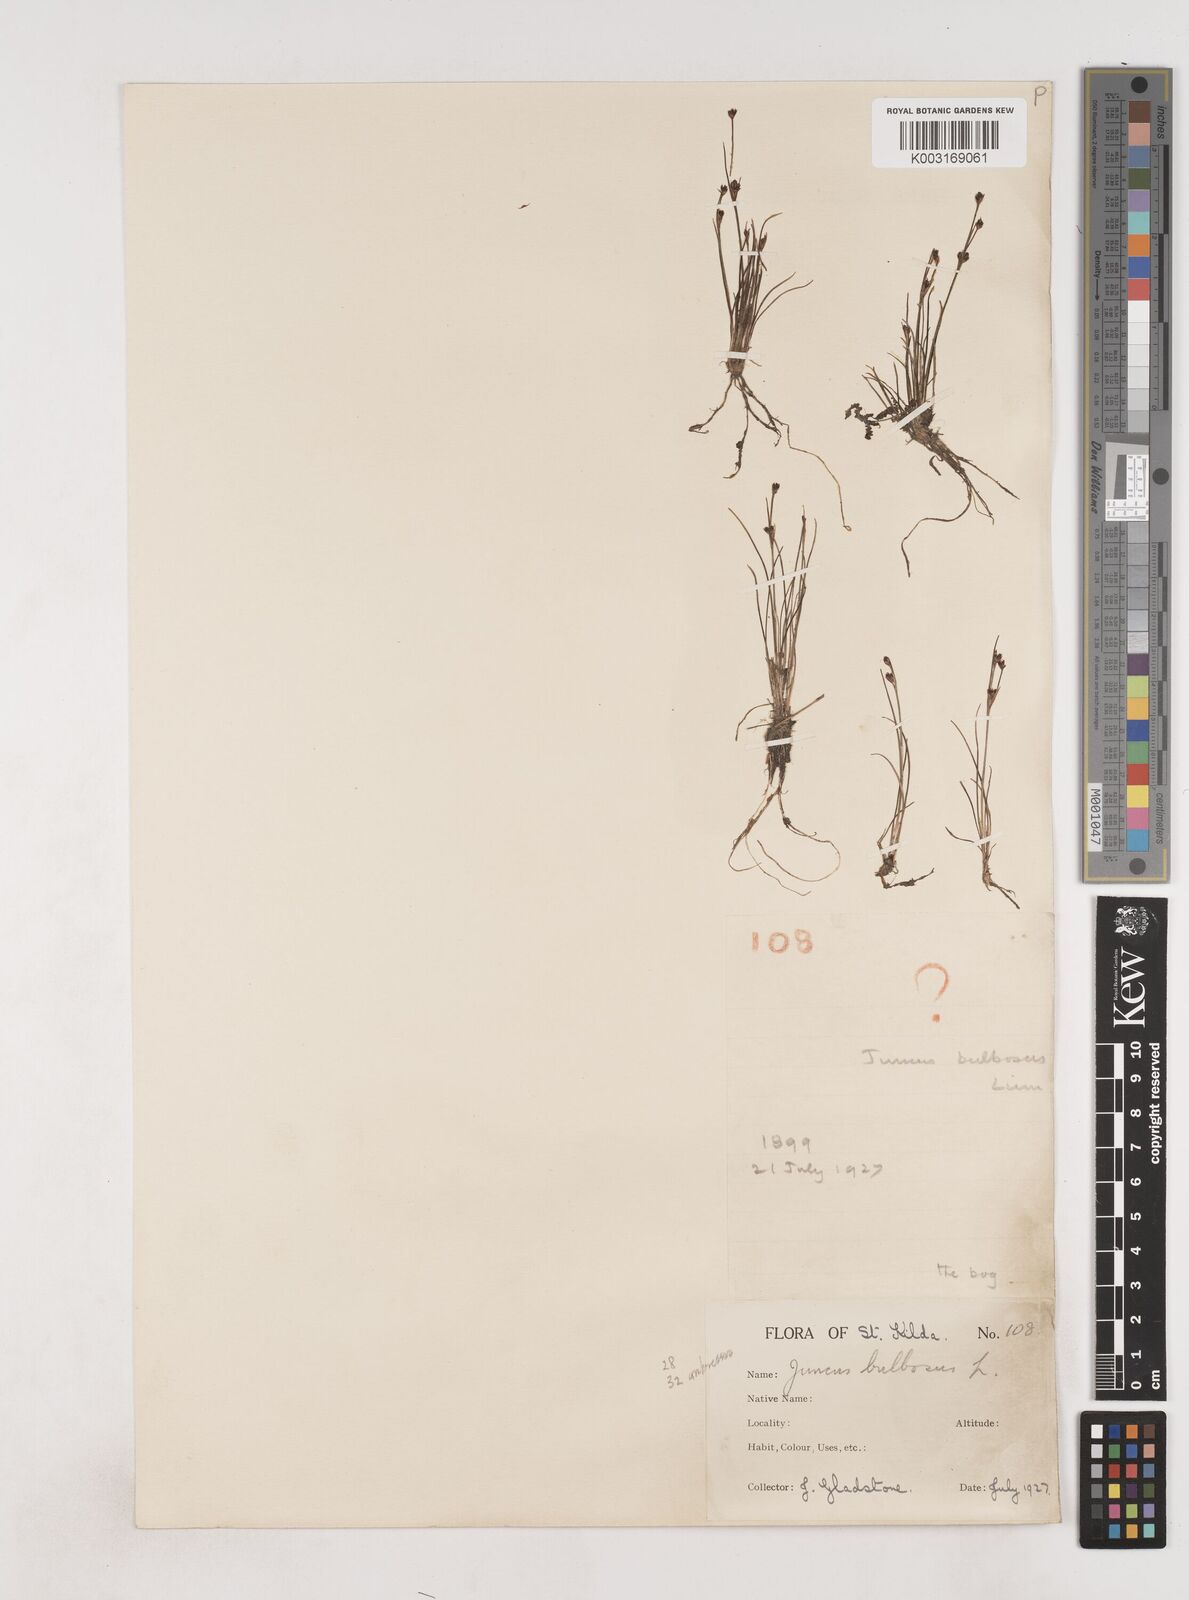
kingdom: Plantae
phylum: Tracheophyta
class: Liliopsida
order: Poales
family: Juncaceae
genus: Juncus
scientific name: Juncus bulbosus
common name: Bulbous rush
